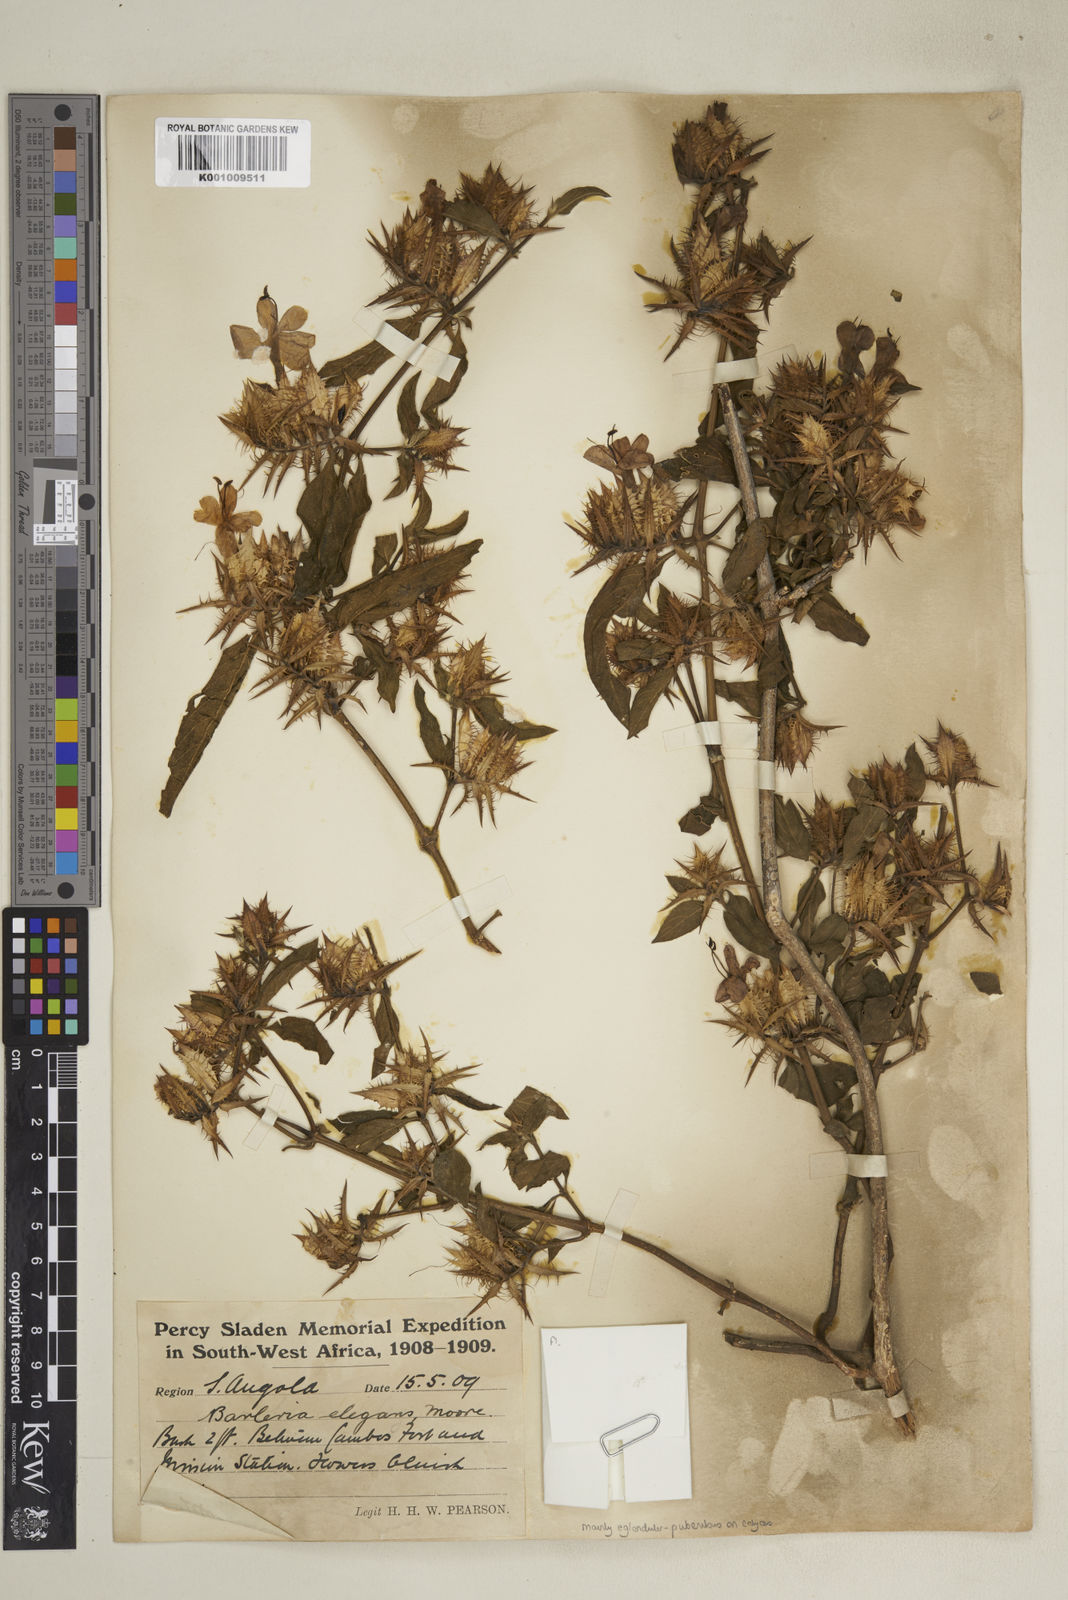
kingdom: Plantae
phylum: Tracheophyta
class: Magnoliopsida
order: Lamiales
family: Acanthaceae
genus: Barleria
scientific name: Barleria
